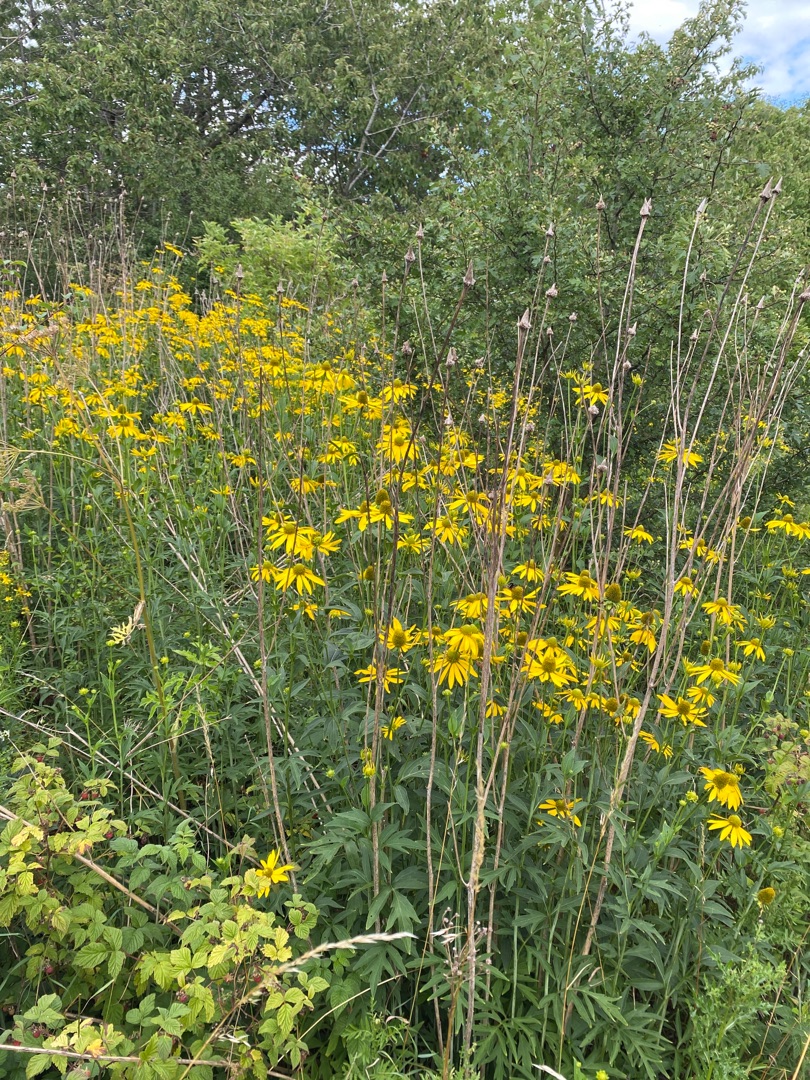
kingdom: Plantae
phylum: Tracheophyta
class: Magnoliopsida
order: Asterales
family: Asteraceae
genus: Rudbeckia
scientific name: Rudbeckia laciniata
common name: Fliget solhat
